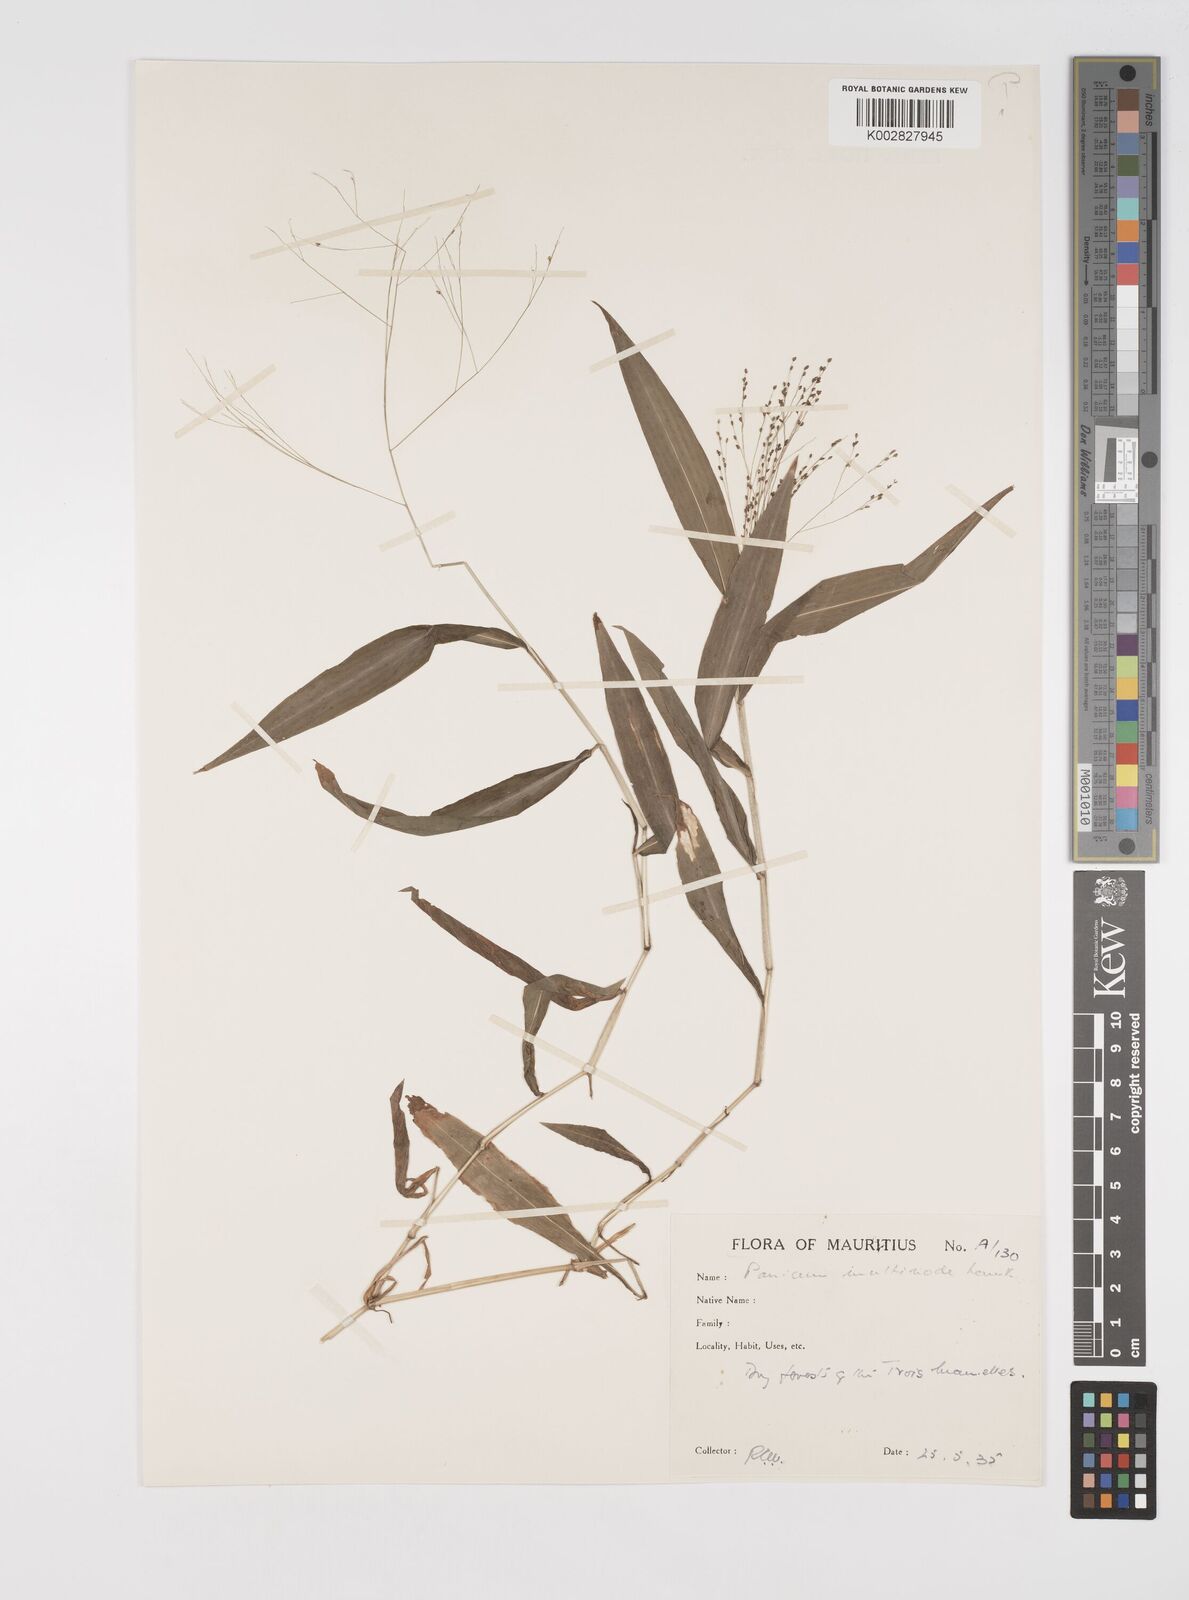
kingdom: Plantae
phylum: Tracheophyta
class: Liliopsida
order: Poales
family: Poaceae
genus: Cyrtococcum
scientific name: Cyrtococcum multinode
